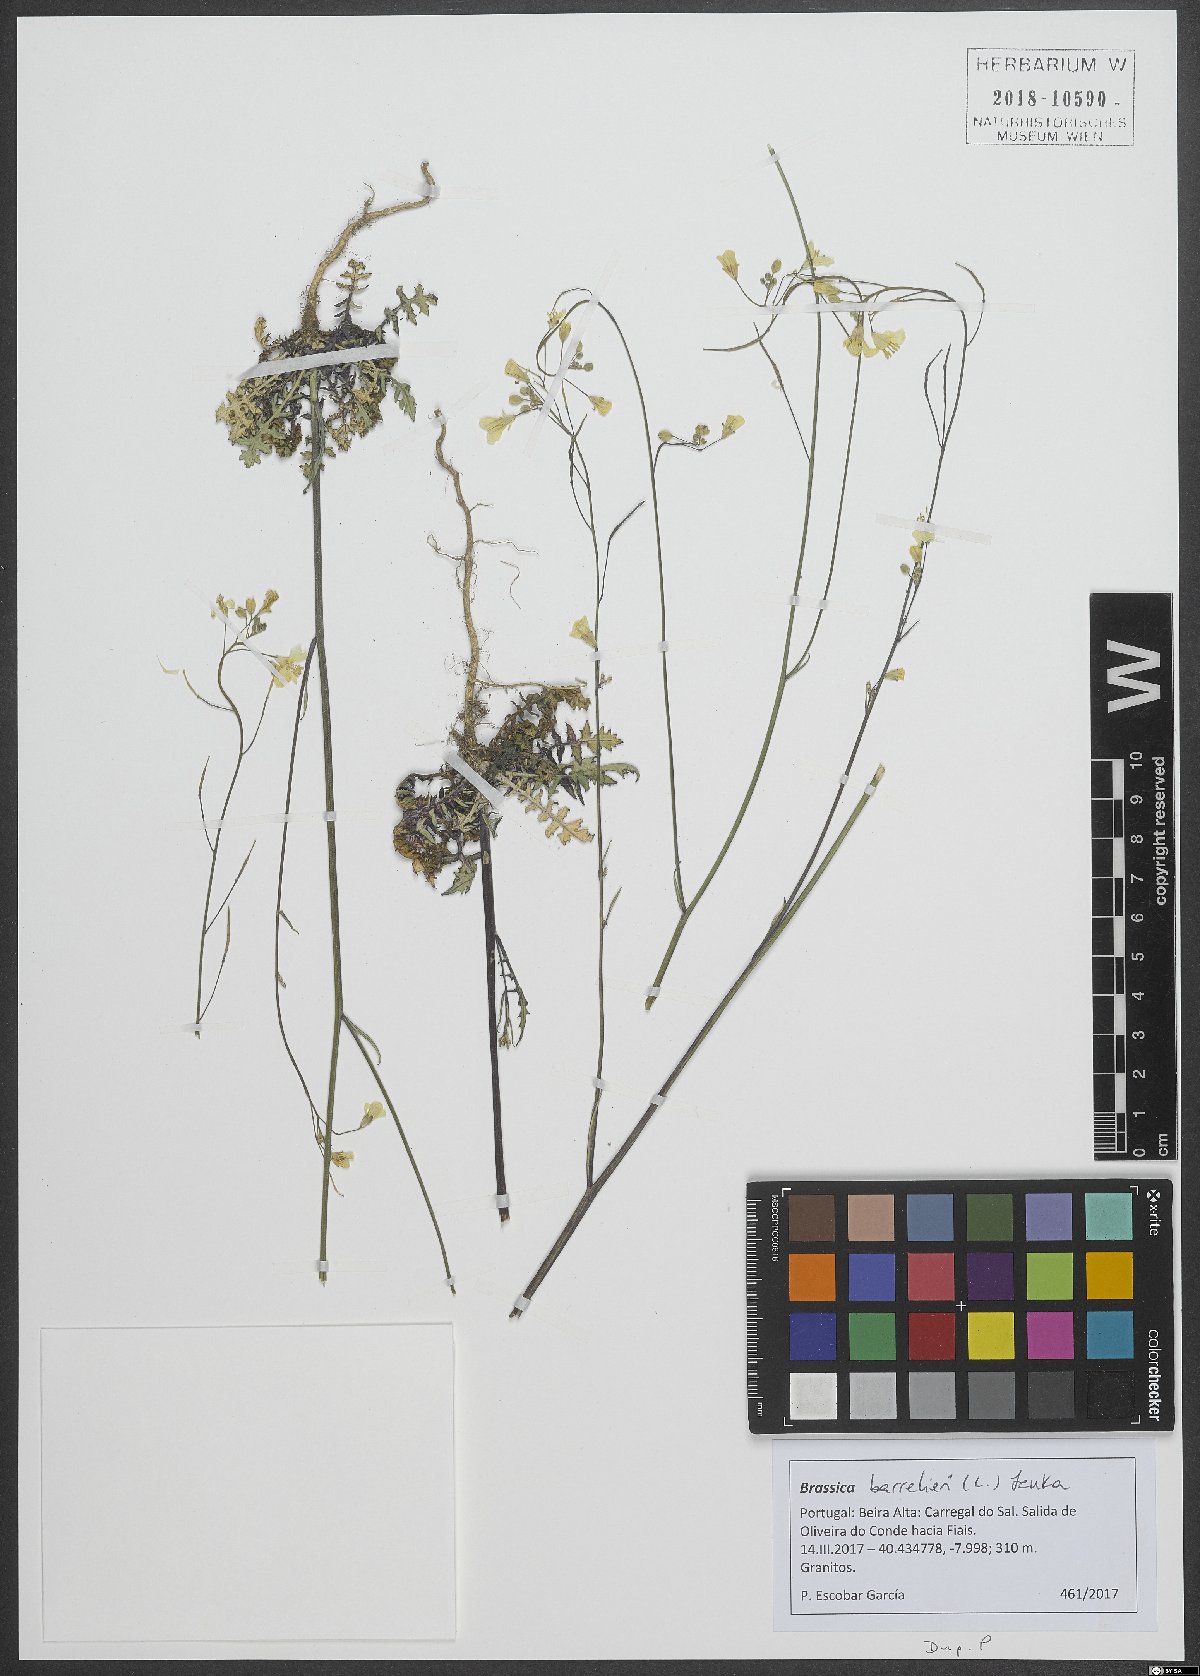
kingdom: Plantae
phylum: Tracheophyta
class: Magnoliopsida
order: Brassicales
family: Brassicaceae
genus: Brassica
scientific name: Brassica barrelieri
